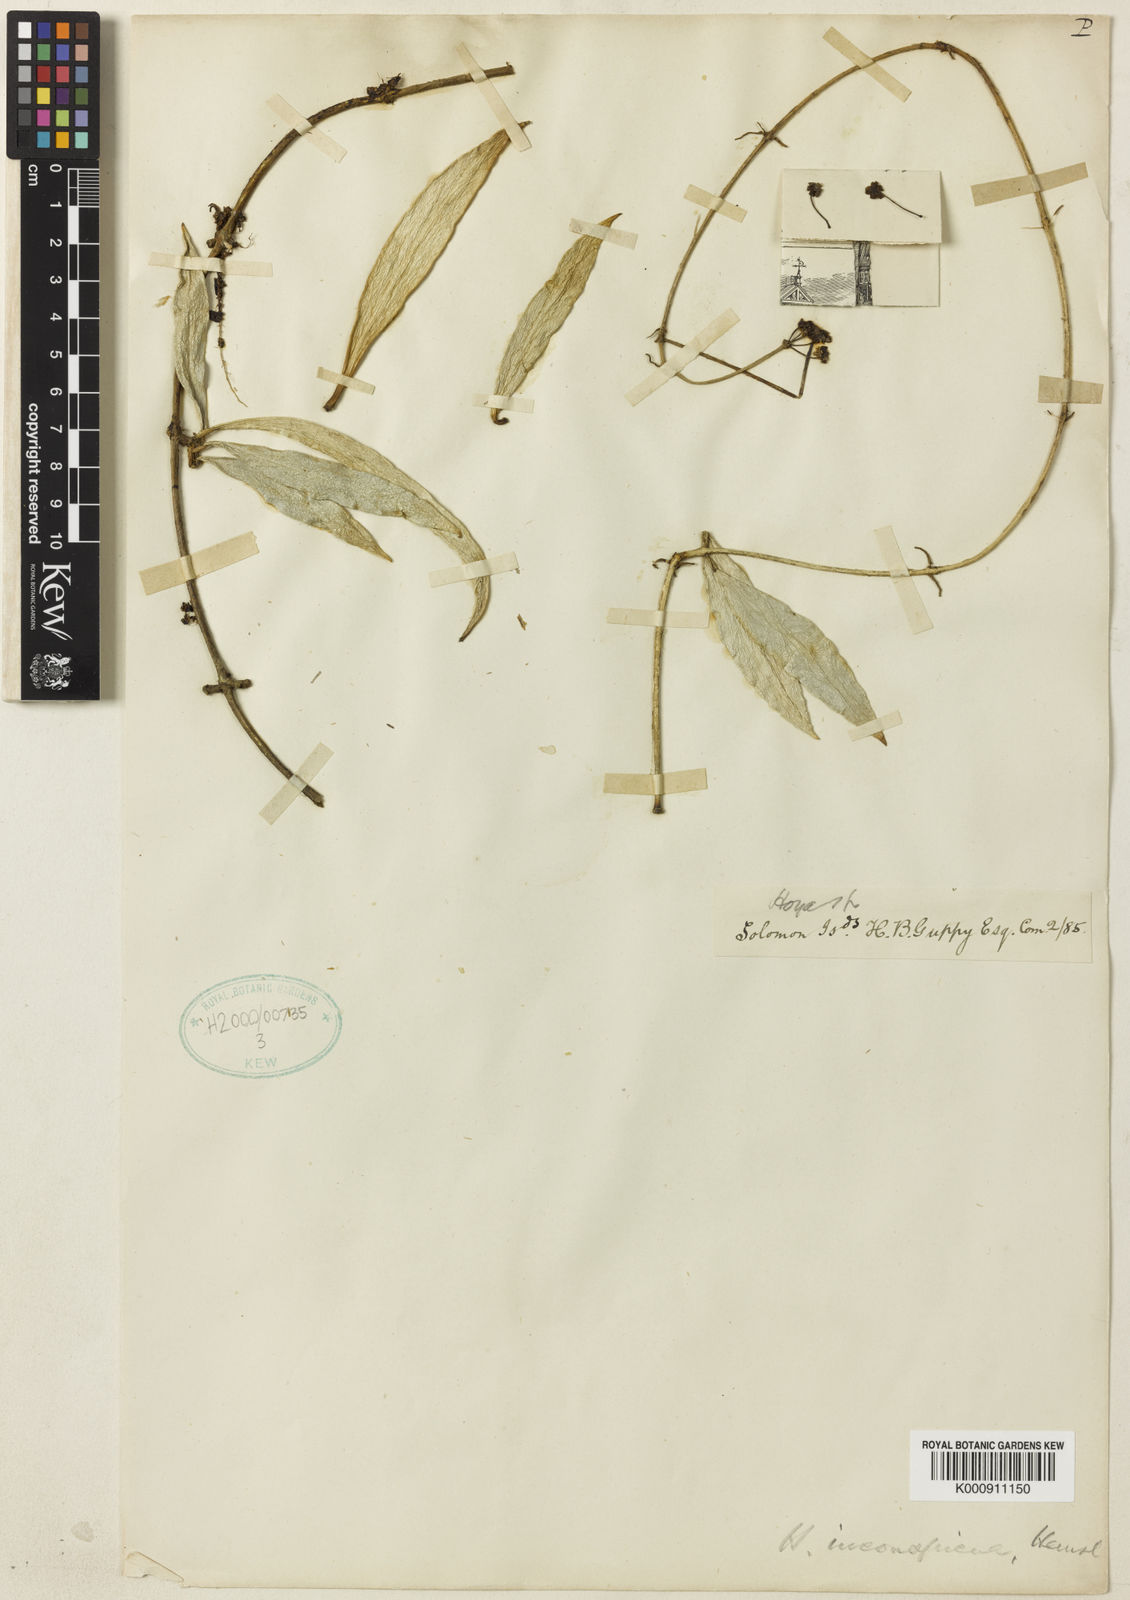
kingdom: Plantae
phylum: Tracheophyta
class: Magnoliopsida
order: Gentianales
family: Apocynaceae
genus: Hoya
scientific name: Hoya inconspicua
